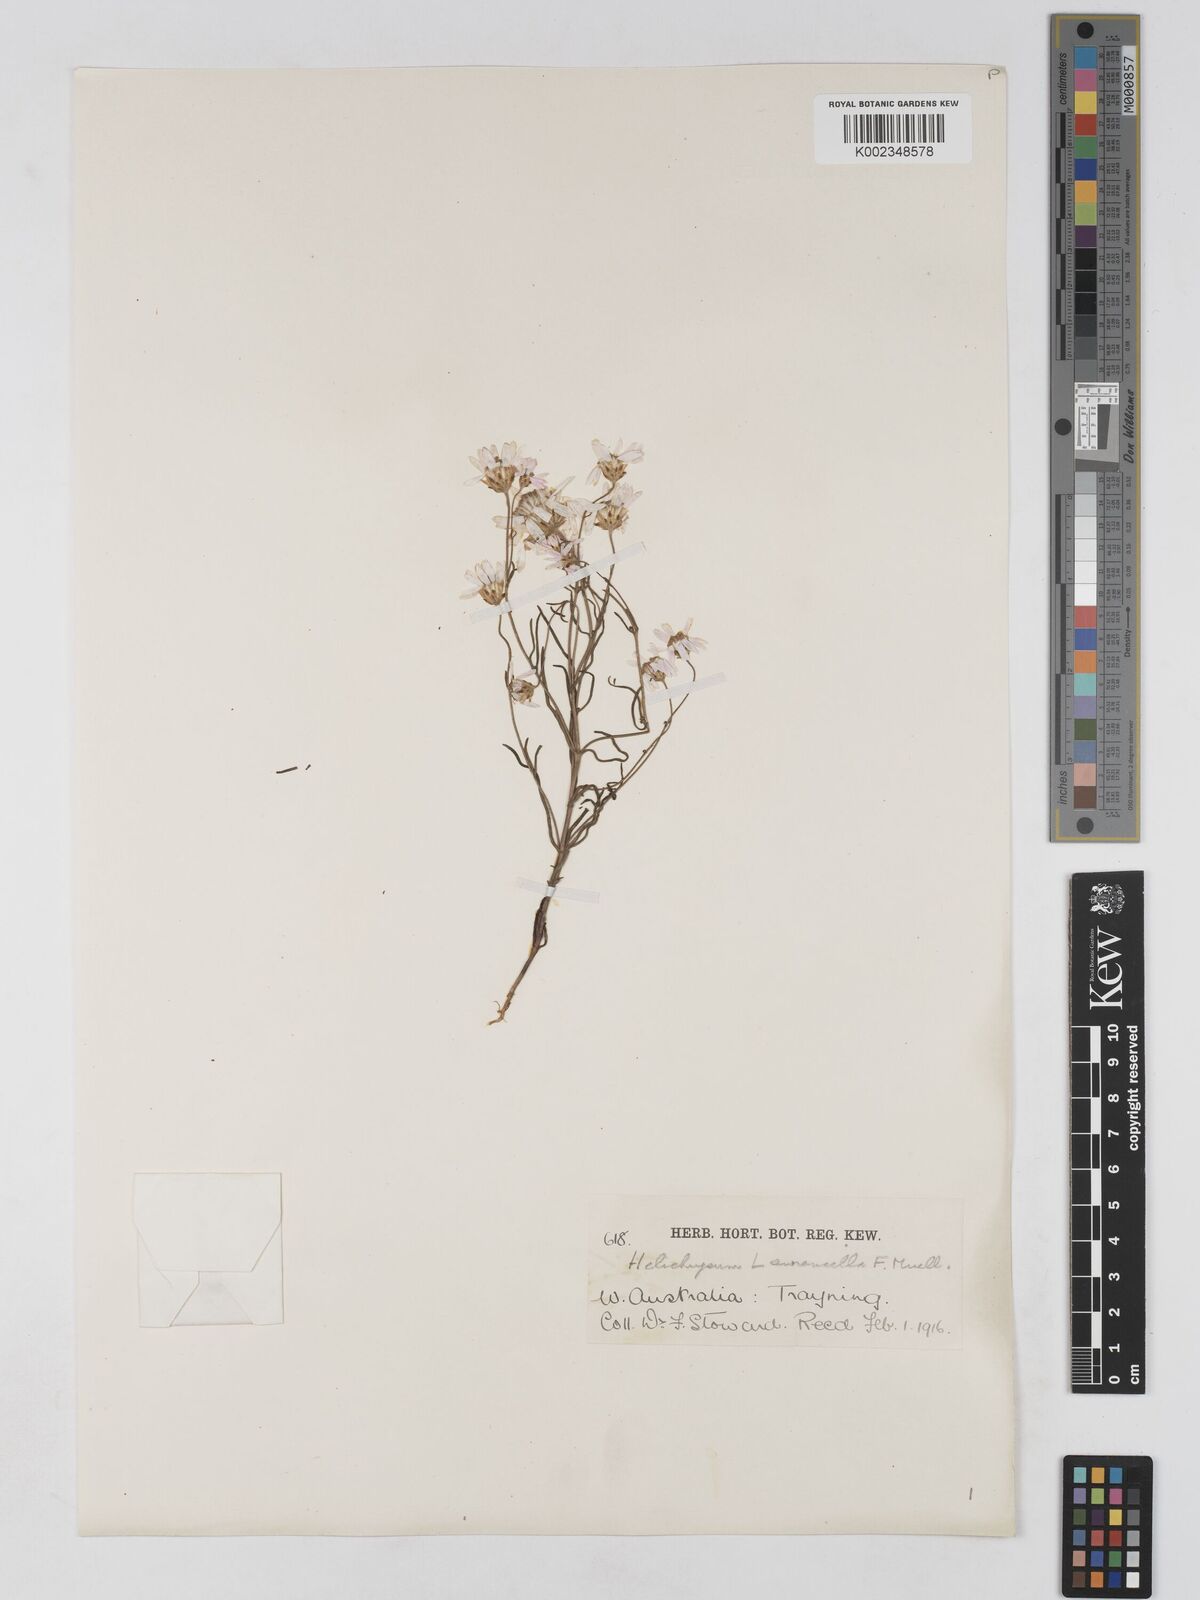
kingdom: Plantae
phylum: Tracheophyta
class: Magnoliopsida
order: Asterales
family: Asteraceae
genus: Lawrencella
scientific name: Lawrencella rosea
